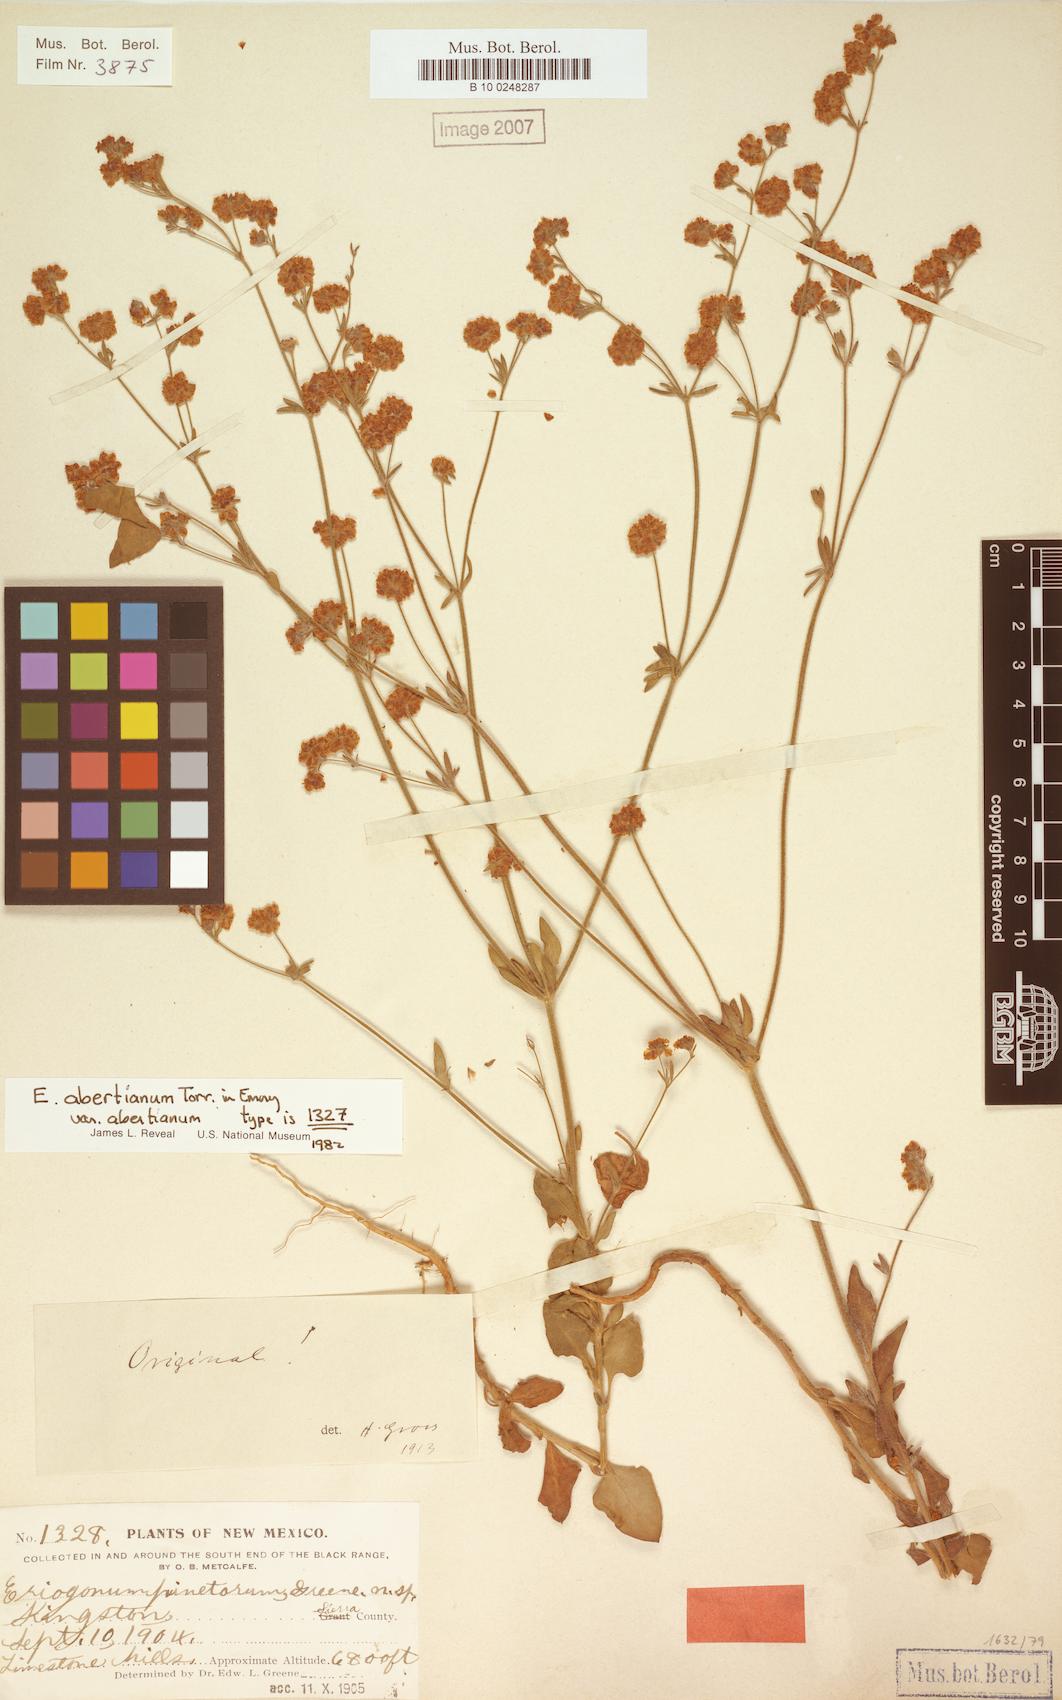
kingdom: Plantae
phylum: Tracheophyta
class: Magnoliopsida
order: Caryophyllales
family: Polygonaceae
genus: Eriogonum
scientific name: Eriogonum abertianum
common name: Abert's wild buckwheat
